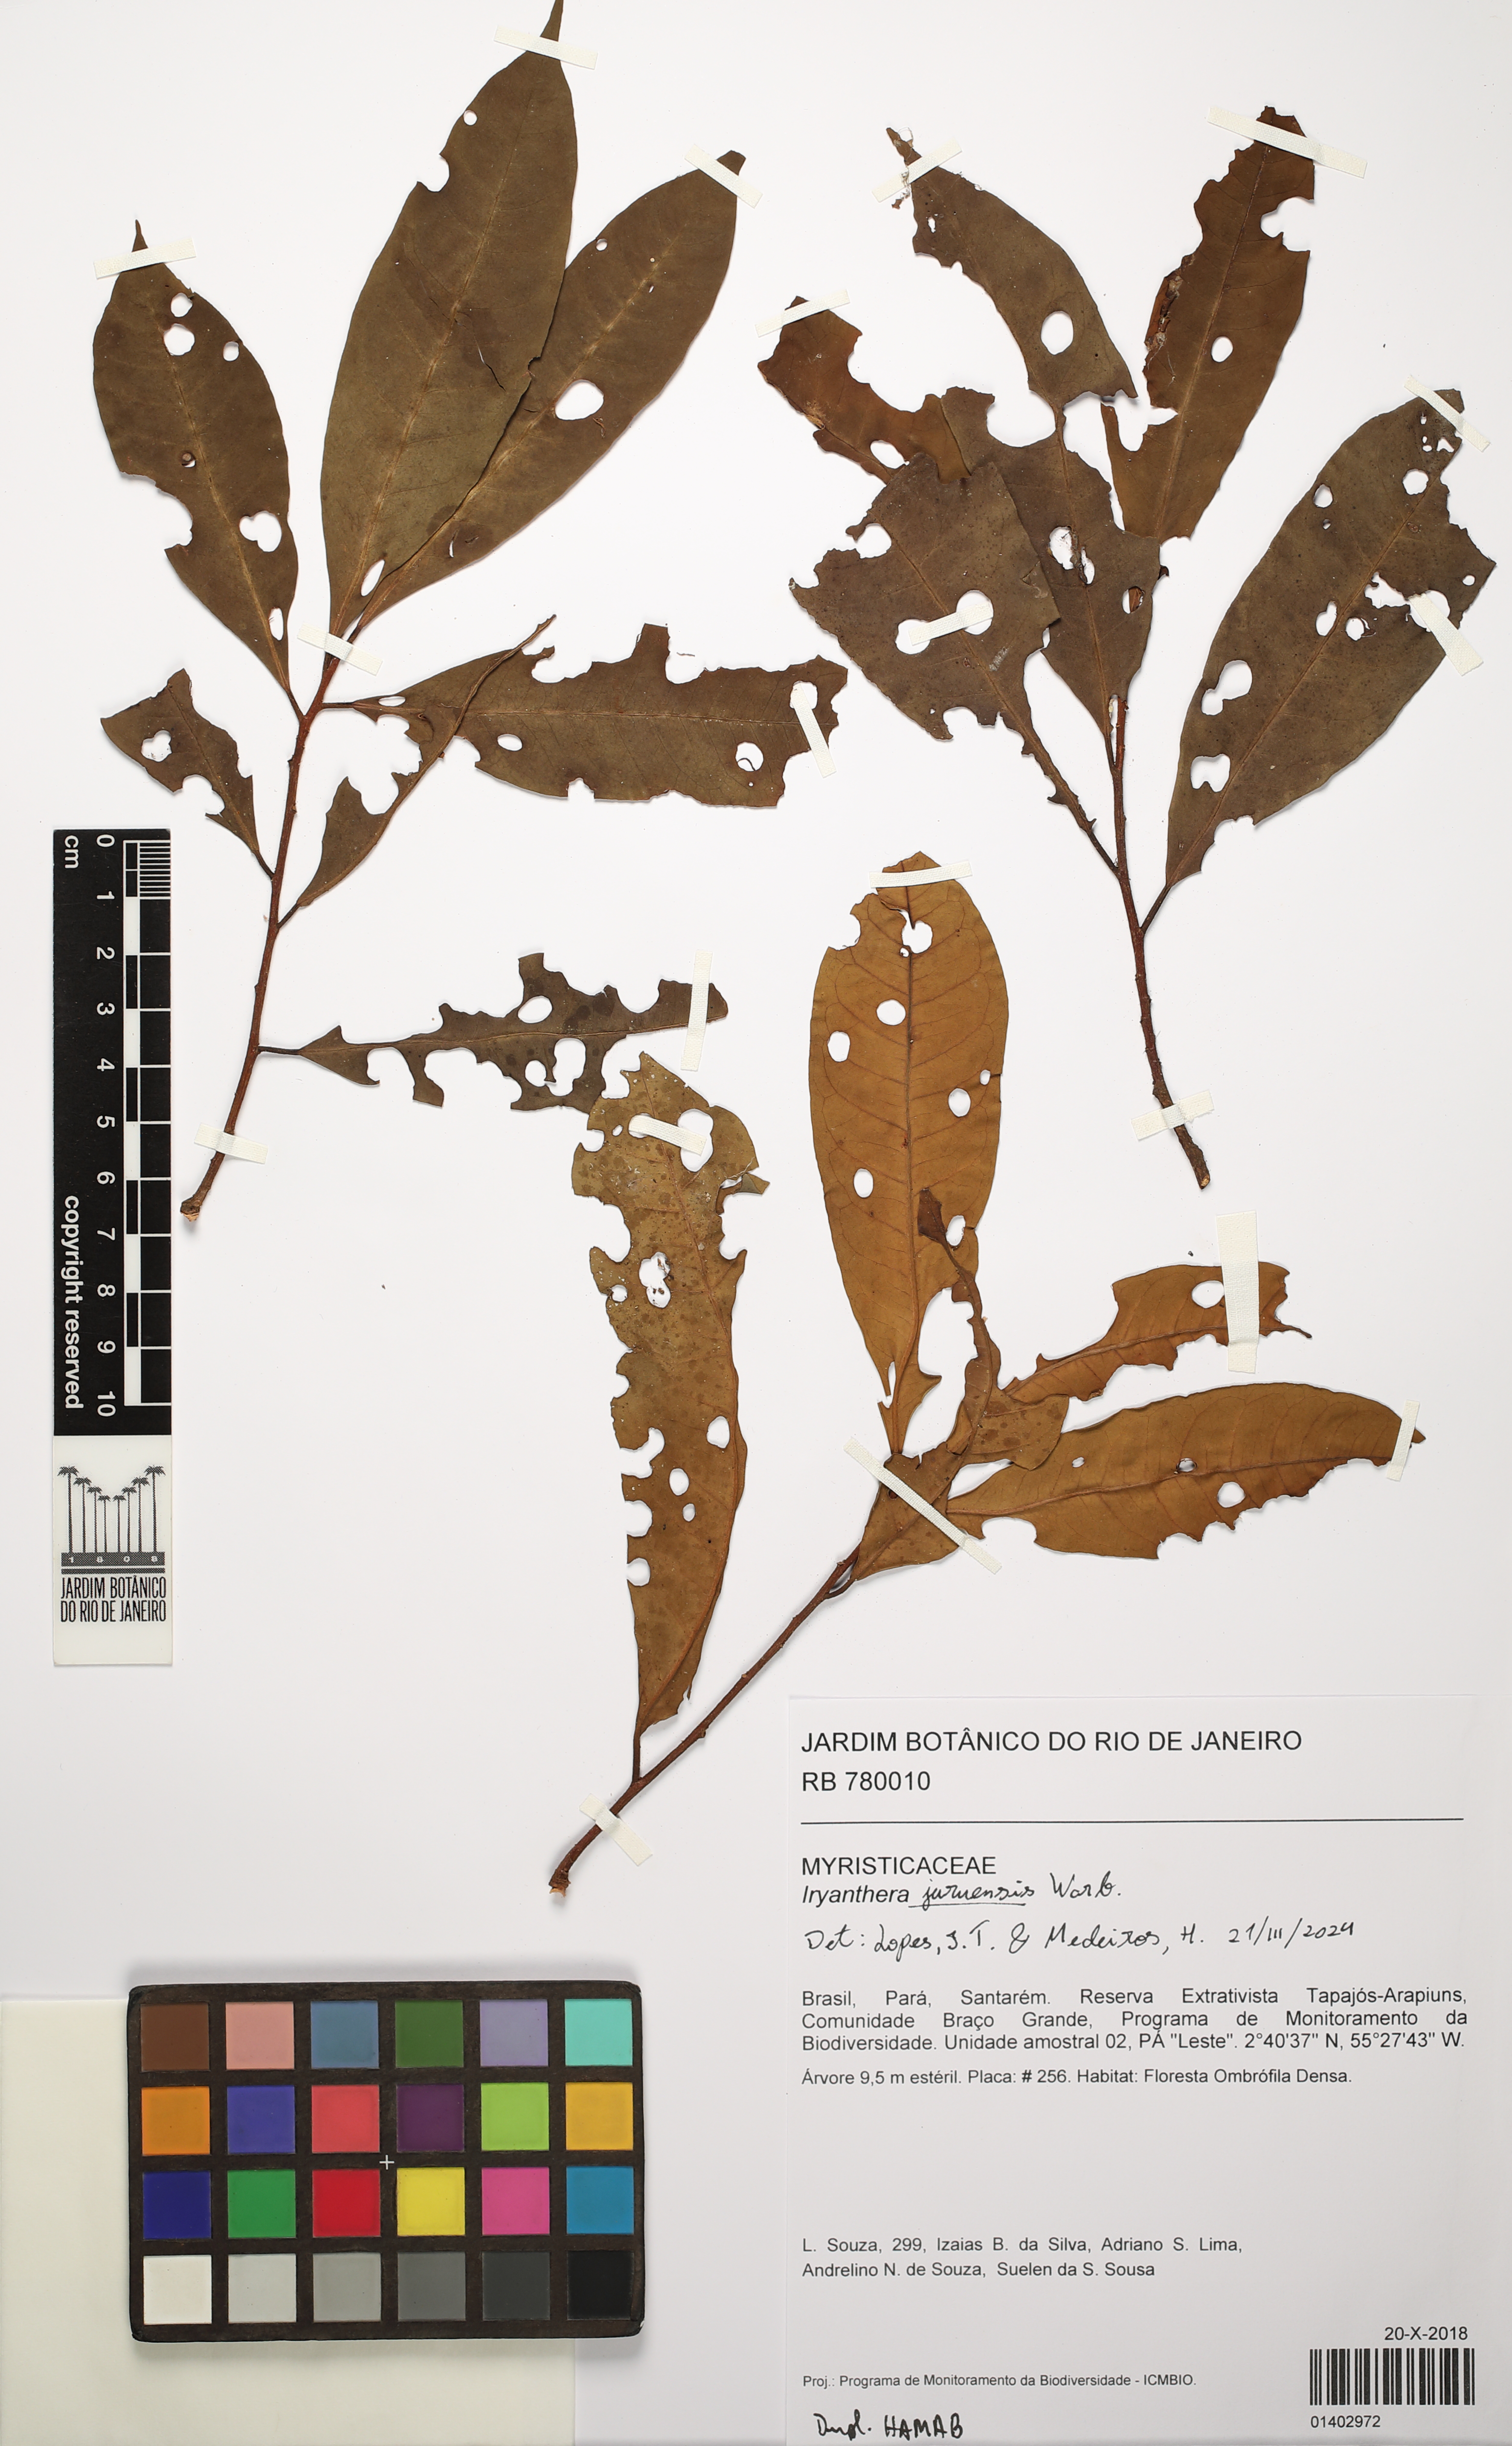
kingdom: Plantae
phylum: Tracheophyta
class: Magnoliopsida
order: Magnoliales
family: Myristicaceae
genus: Iryanthera
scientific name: Iryanthera juruensis
